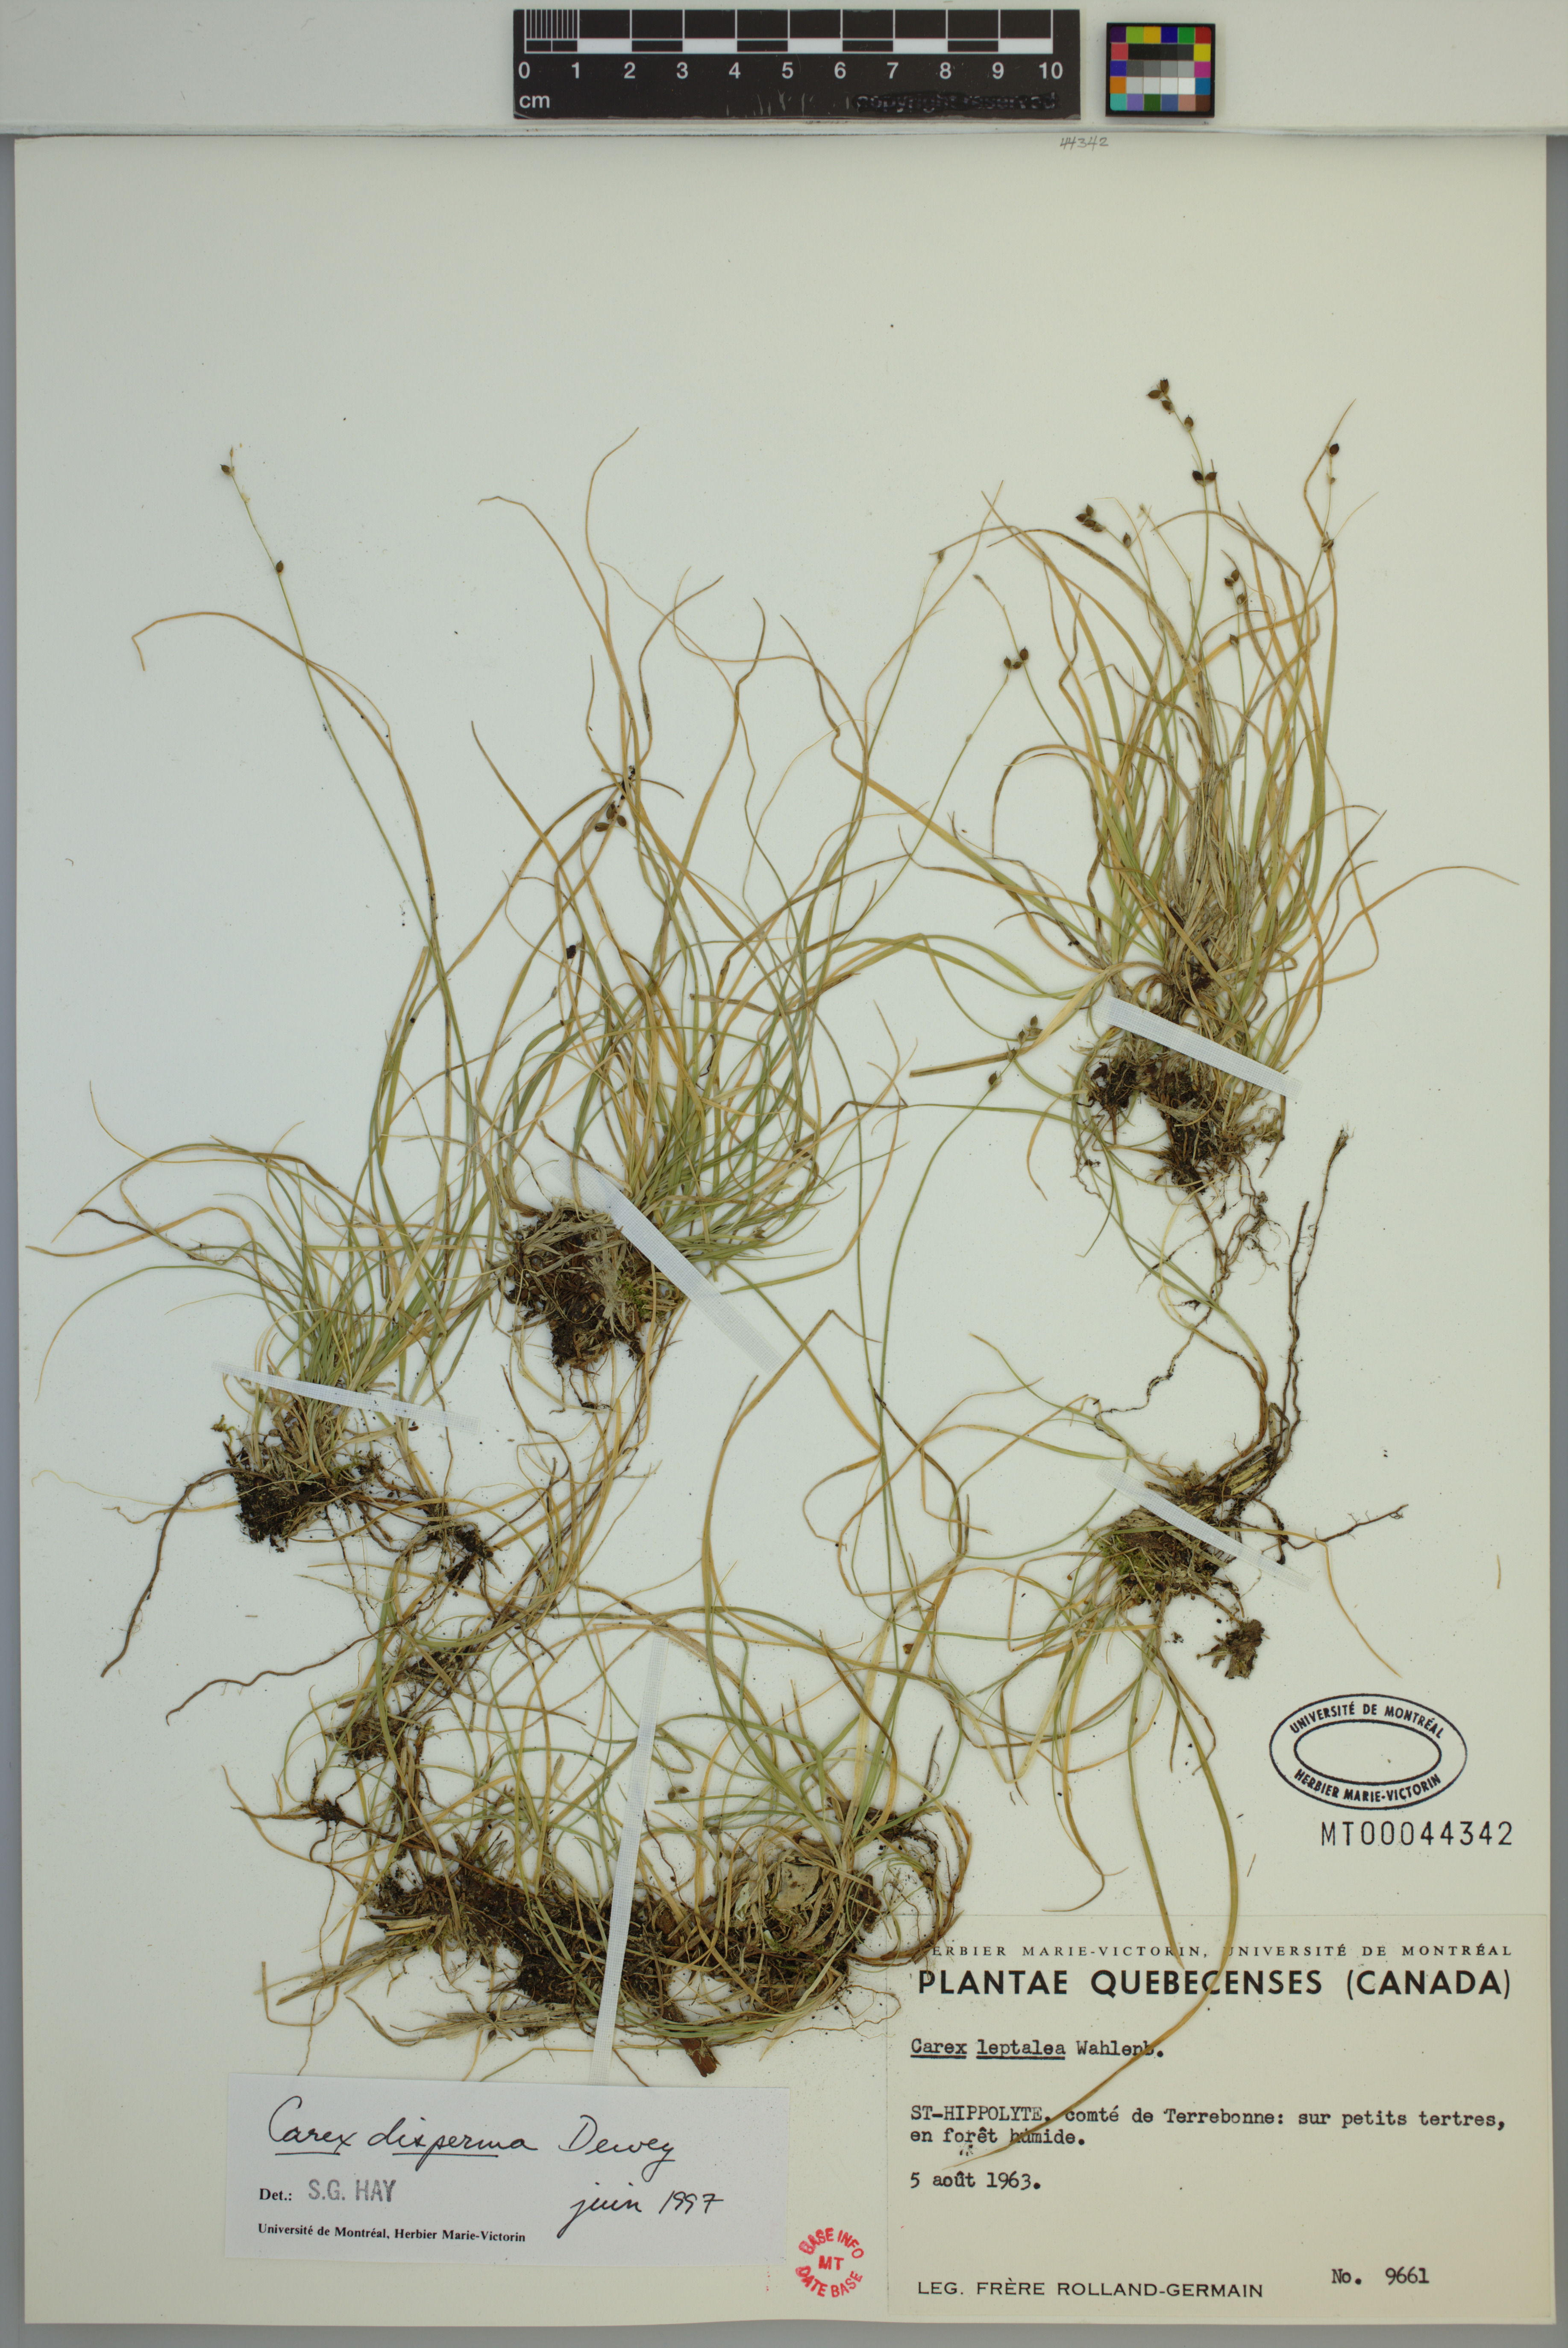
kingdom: Plantae
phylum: Tracheophyta
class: Liliopsida
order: Poales
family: Cyperaceae
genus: Carex
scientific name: Carex disperma
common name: Short-leaved sedge
